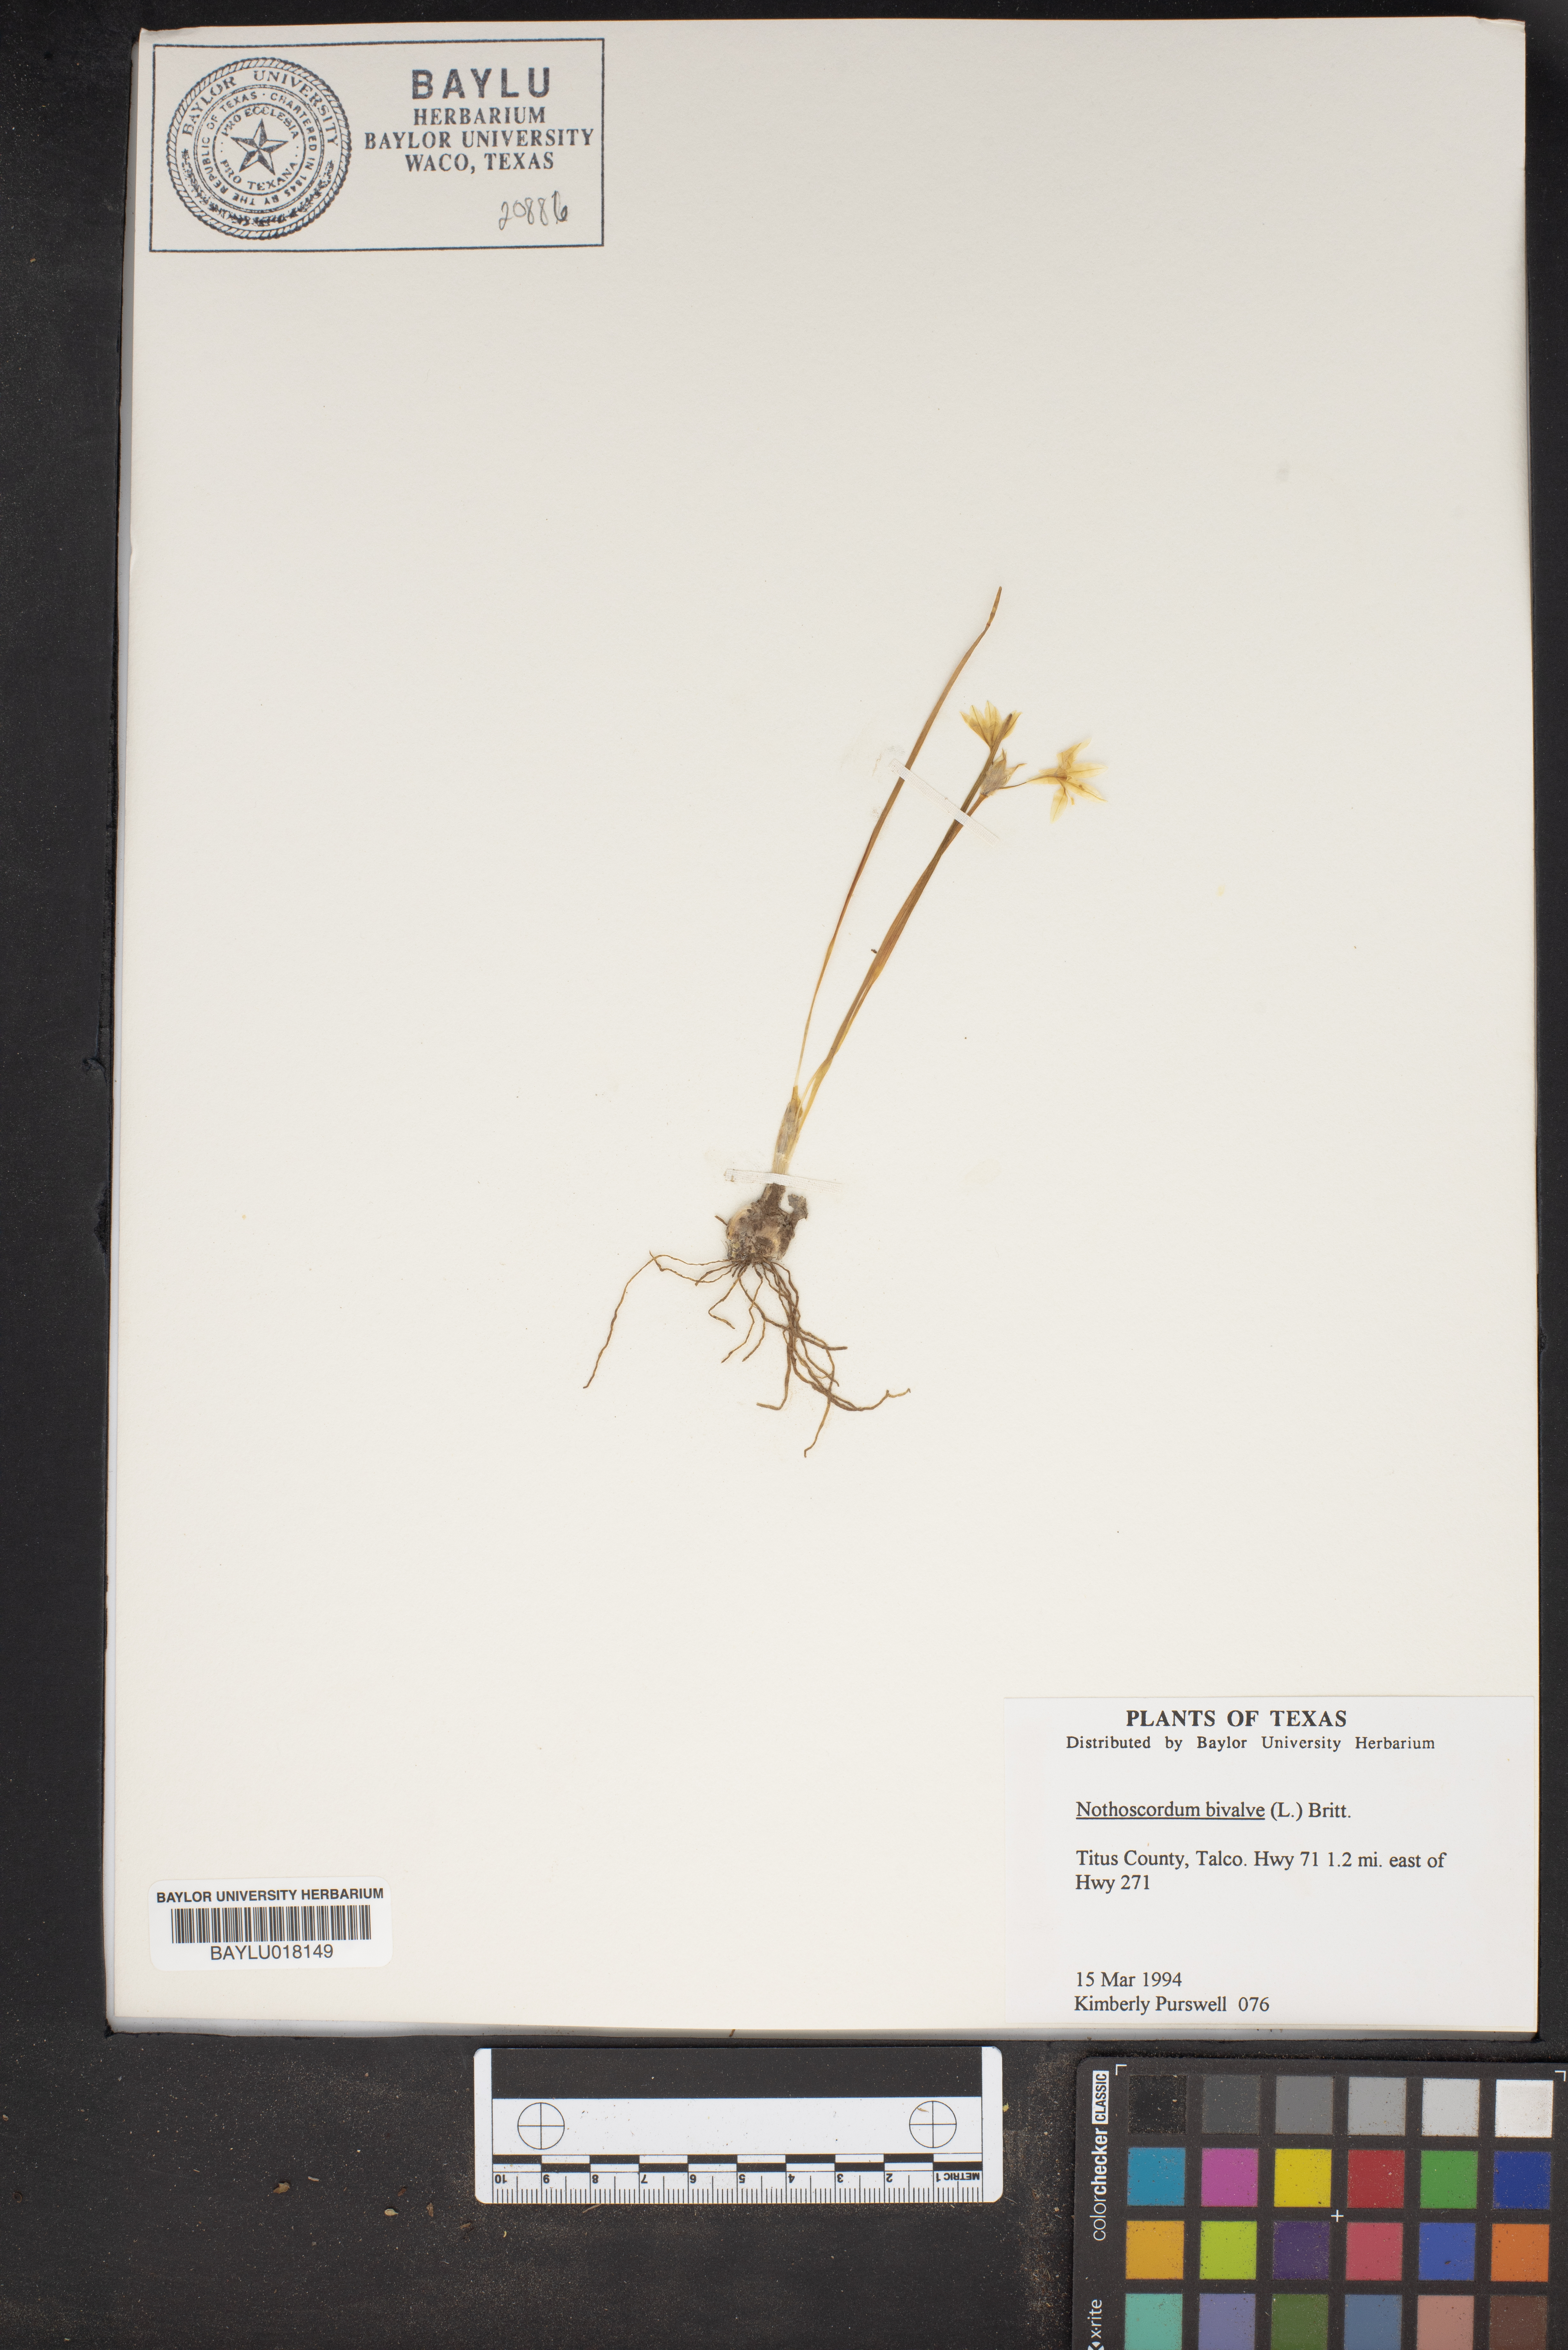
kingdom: Plantae
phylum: Tracheophyta
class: Liliopsida
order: Asparagales
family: Amaryllidaceae
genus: Nothoscordum
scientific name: Nothoscordum bivalve
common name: Crow-poison
